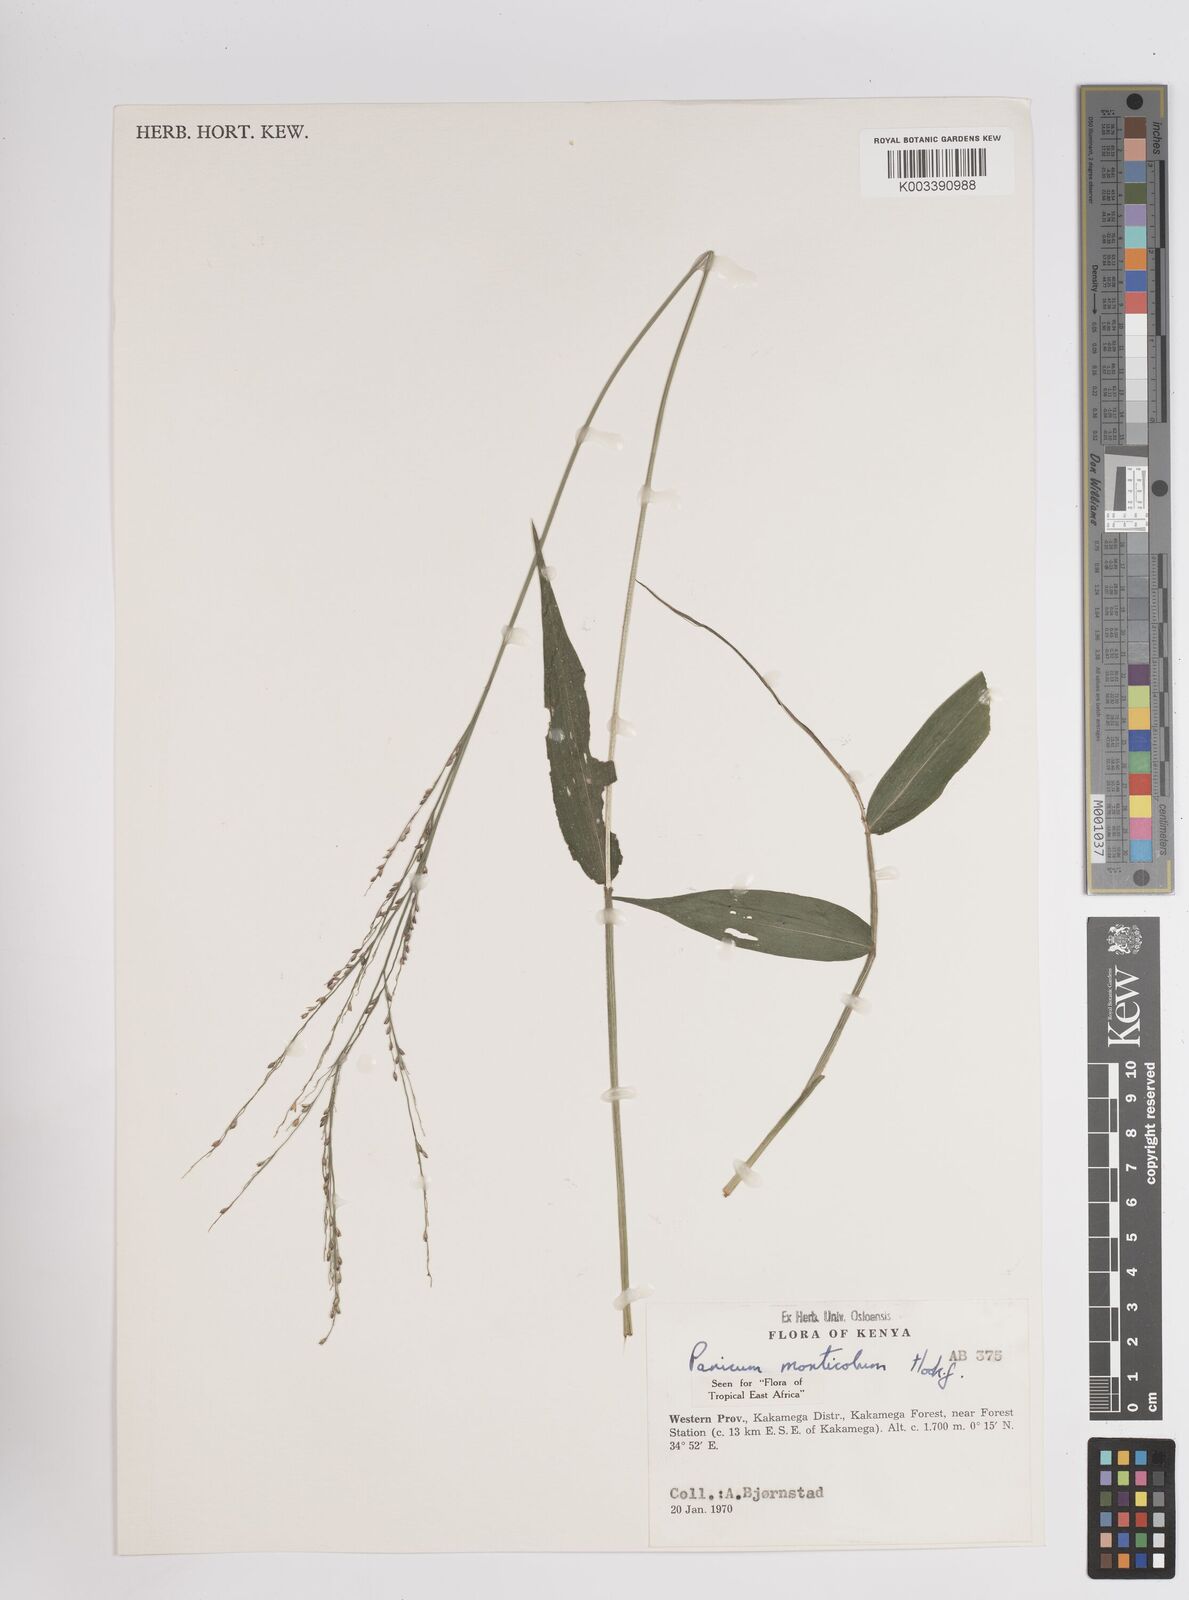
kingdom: Plantae
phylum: Tracheophyta
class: Liliopsida
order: Poales
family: Poaceae
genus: Panicum
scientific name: Panicum monticola
